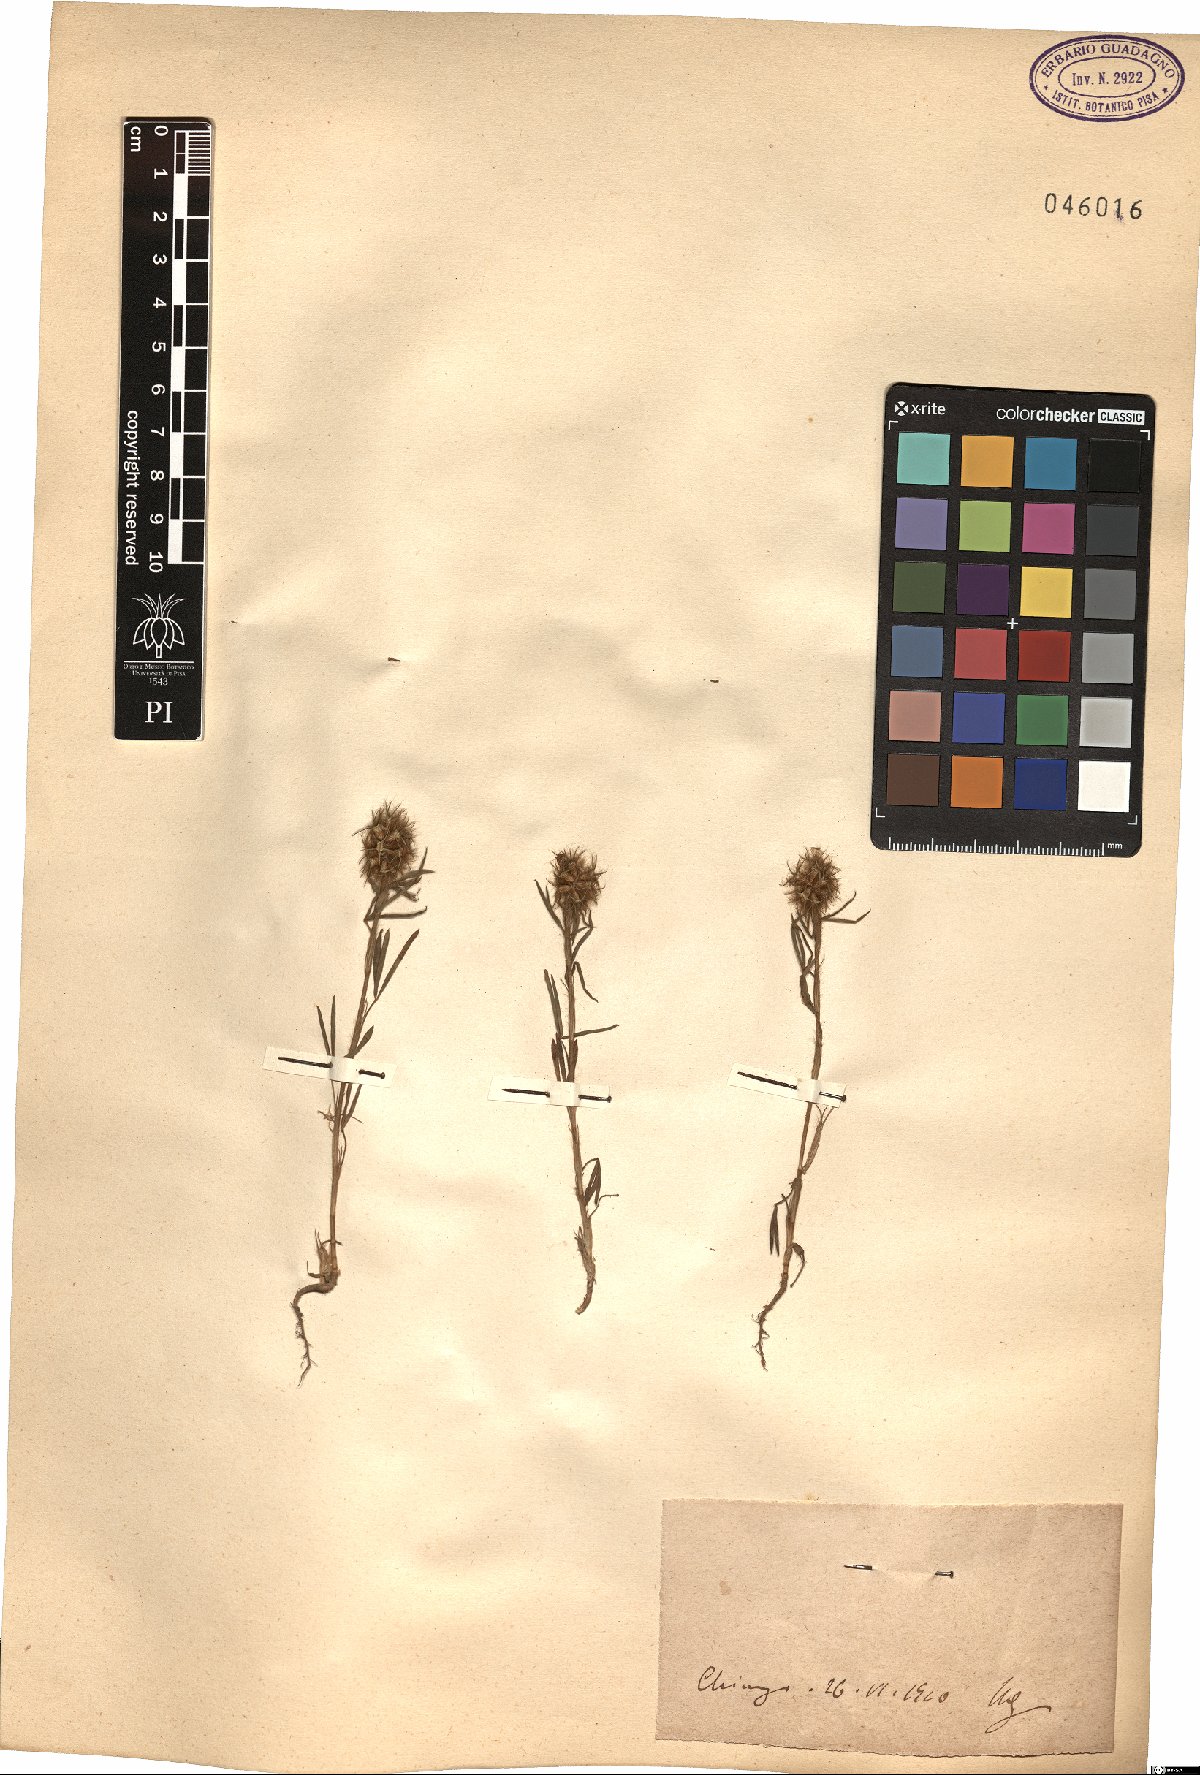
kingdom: Plantae
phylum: Tracheophyta
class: Magnoliopsida
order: Fabales
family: Fabaceae
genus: Trifolium
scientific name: Trifolium
